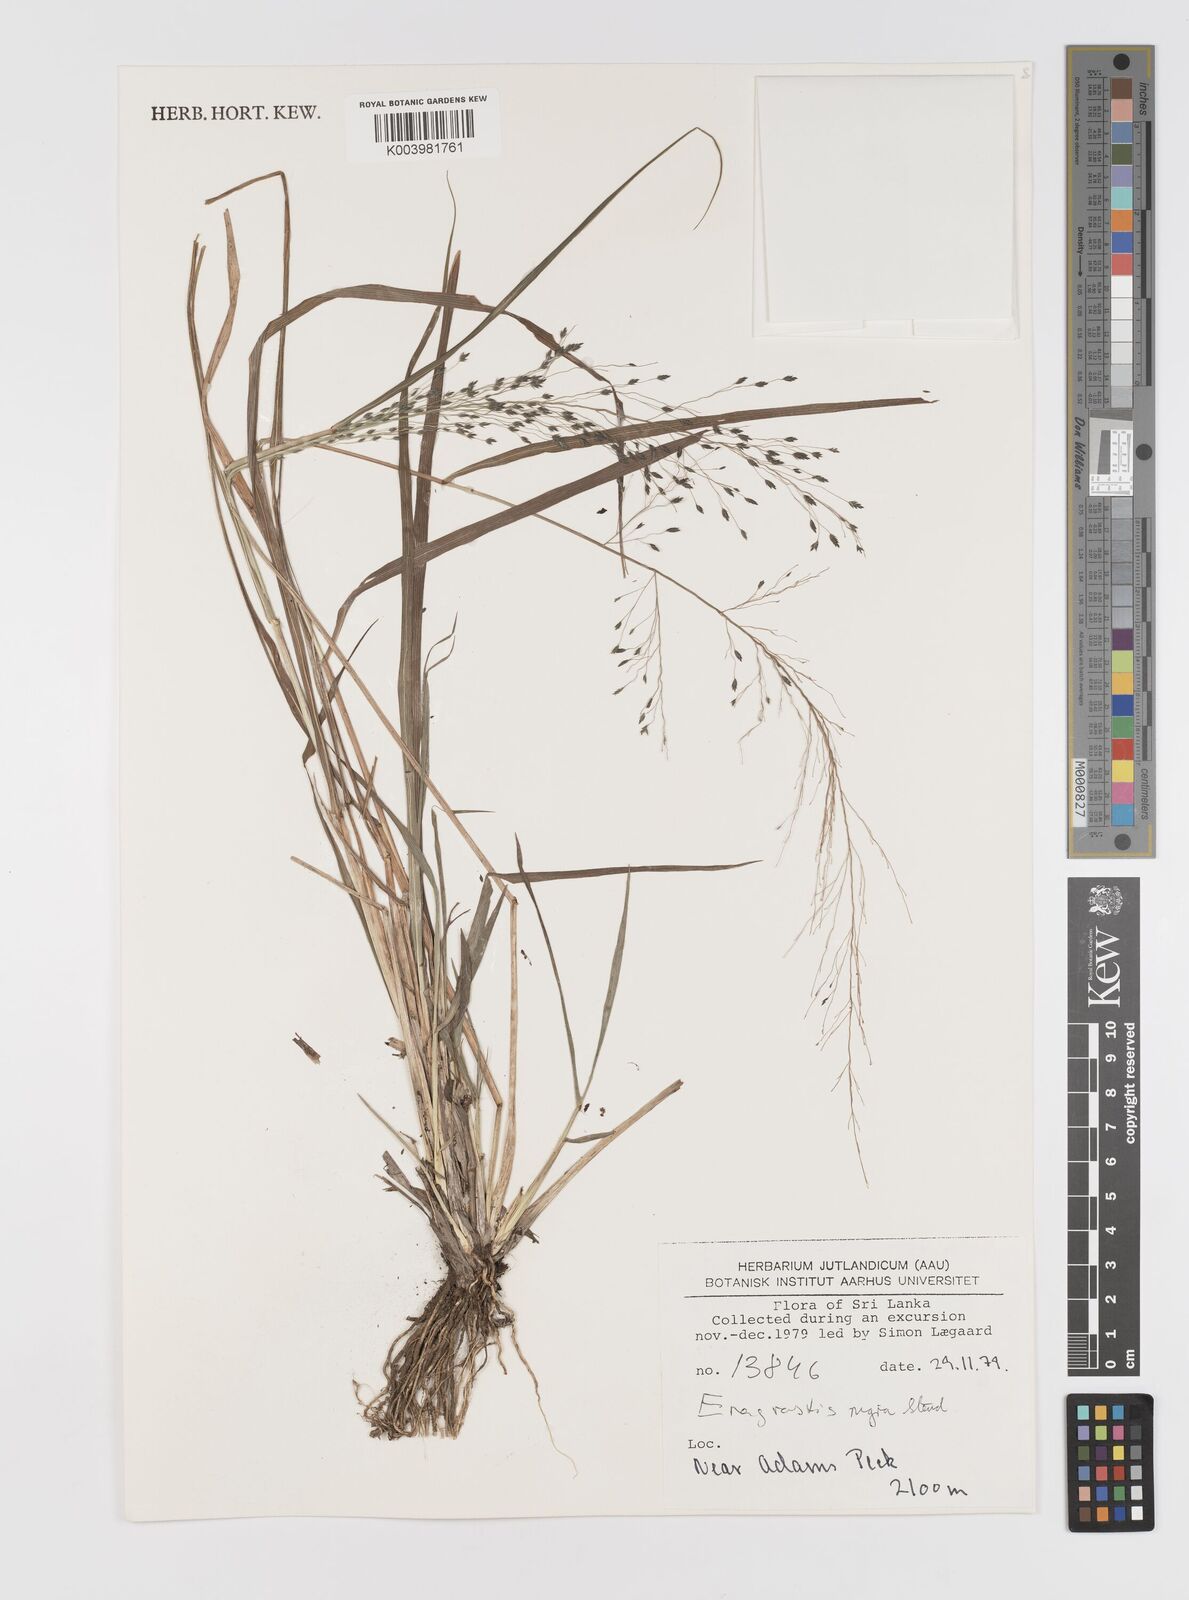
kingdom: Plantae
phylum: Tracheophyta
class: Liliopsida
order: Poales
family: Poaceae
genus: Eragrostis
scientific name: Eragrostis nigra
